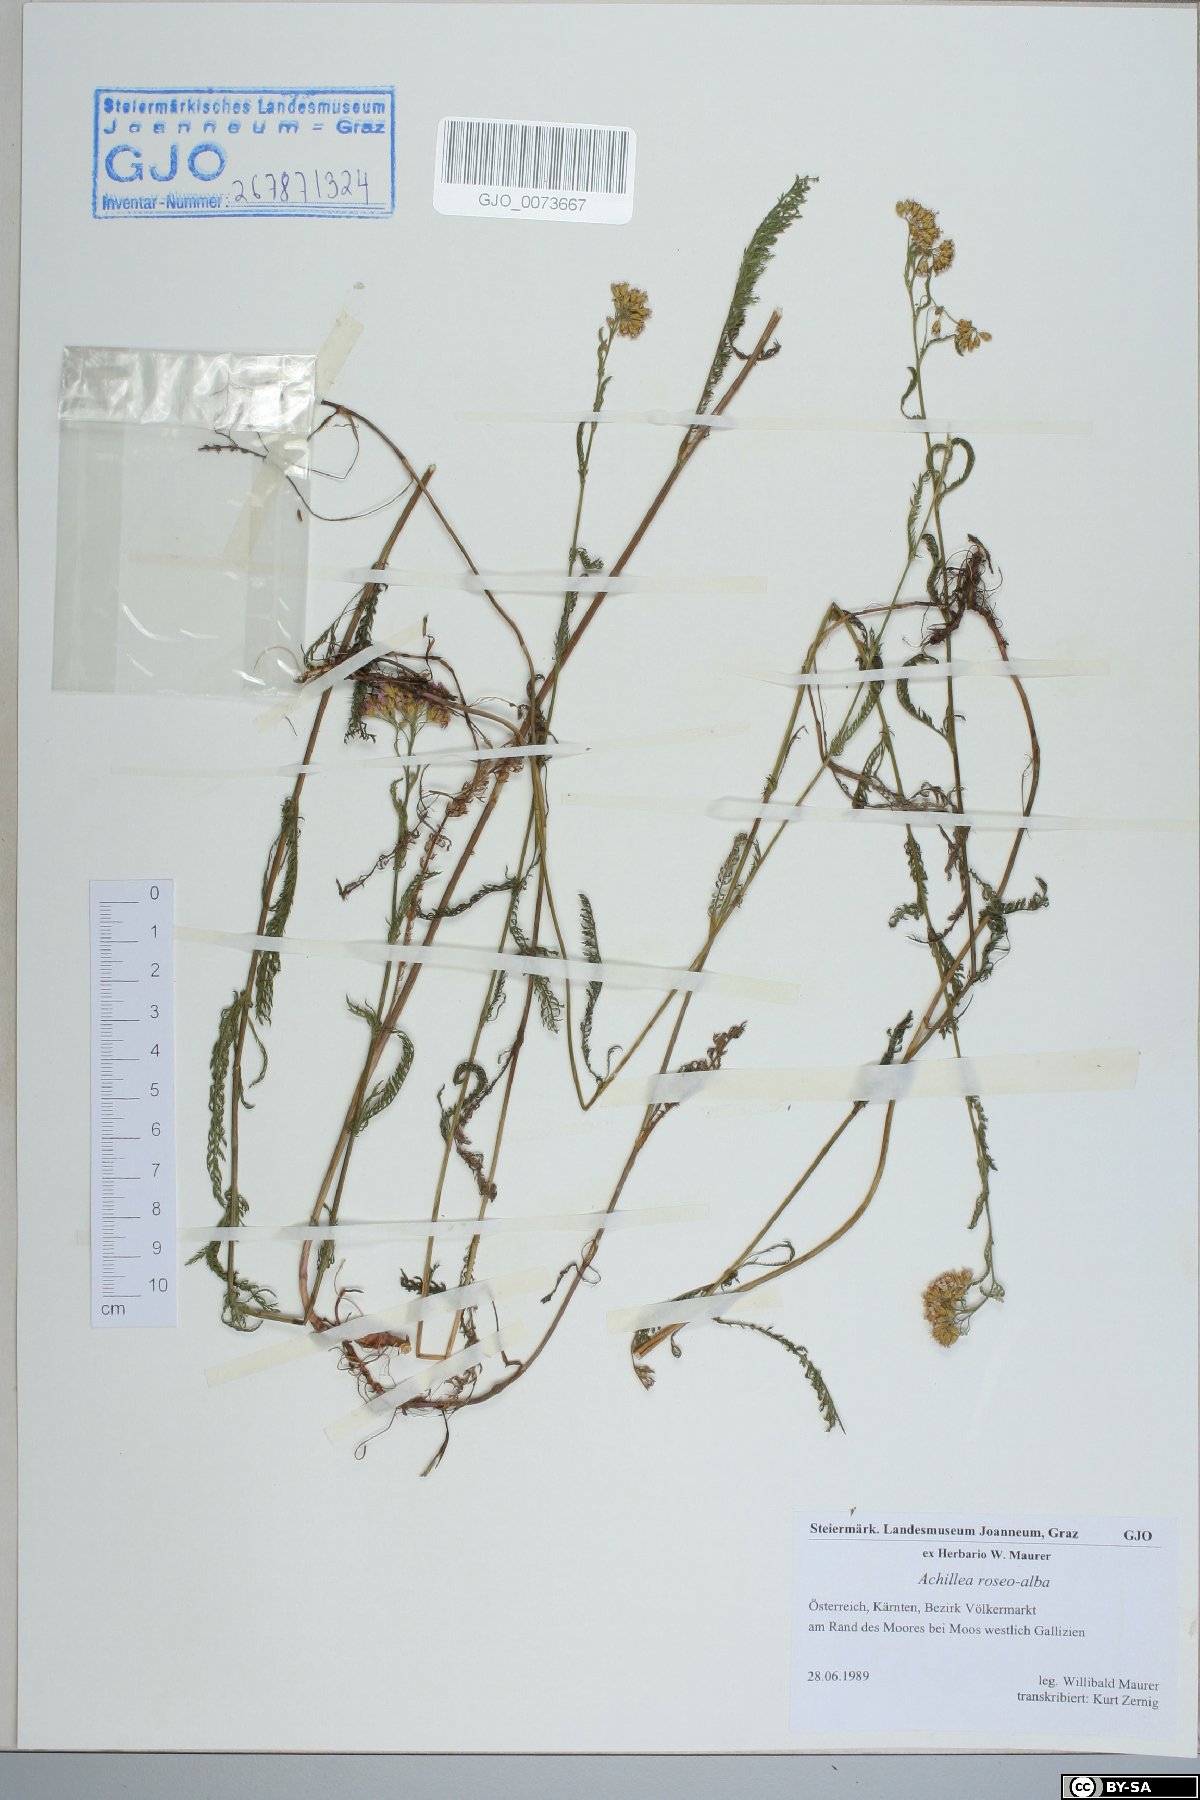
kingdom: Plantae
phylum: Tracheophyta
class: Magnoliopsida
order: Asterales
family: Asteraceae
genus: Achillea
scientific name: Achillea roseoalba
